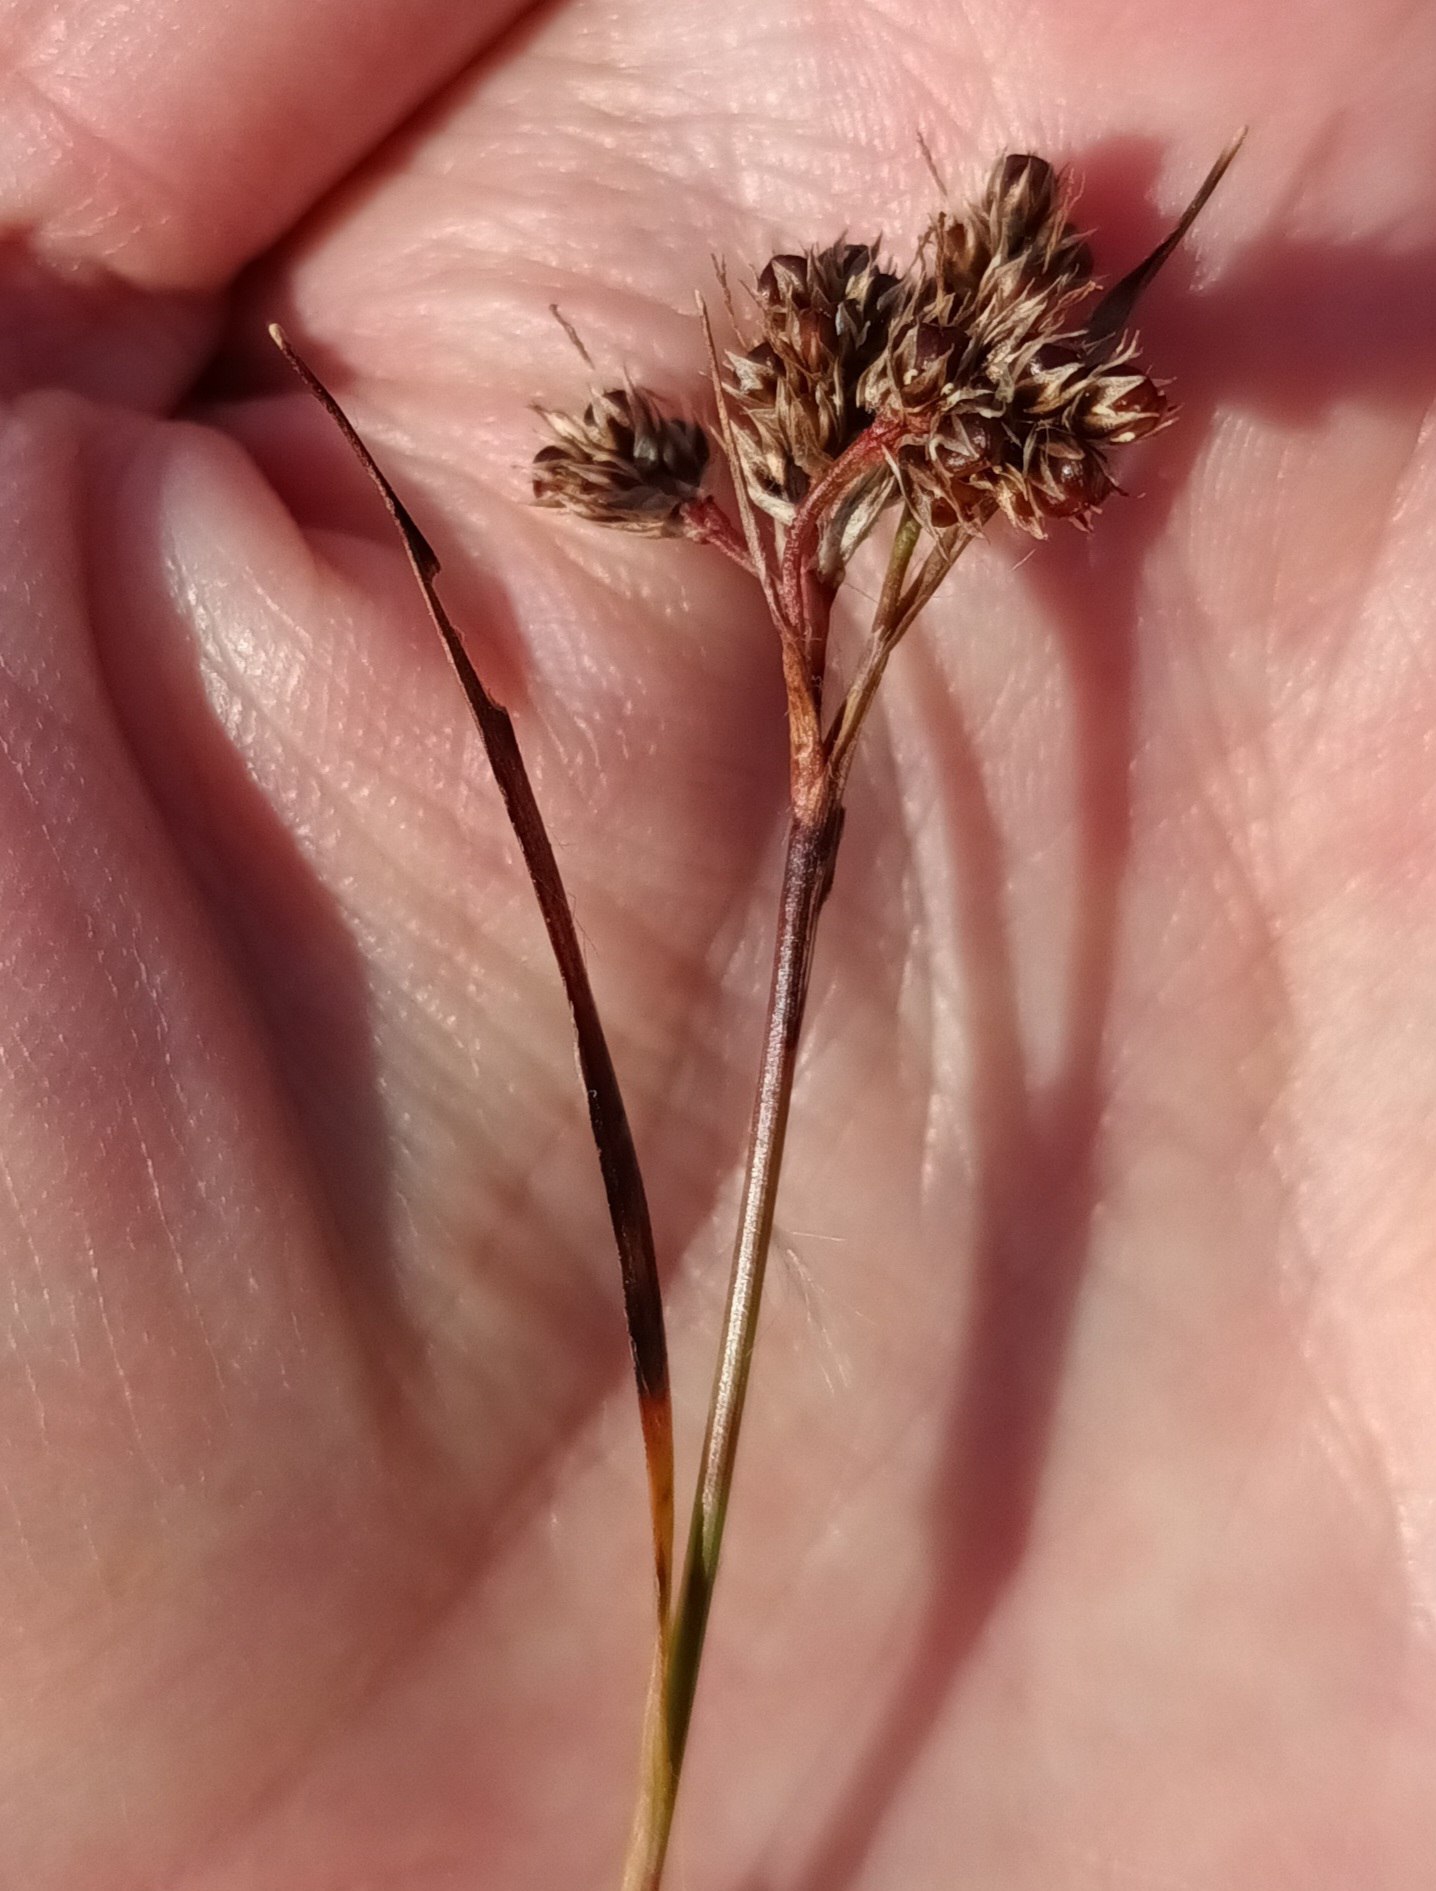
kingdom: Plantae
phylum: Tracheophyta
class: Liliopsida
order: Poales
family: Juncaceae
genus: Luzula
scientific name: Luzula campestris
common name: Mark-frytle
